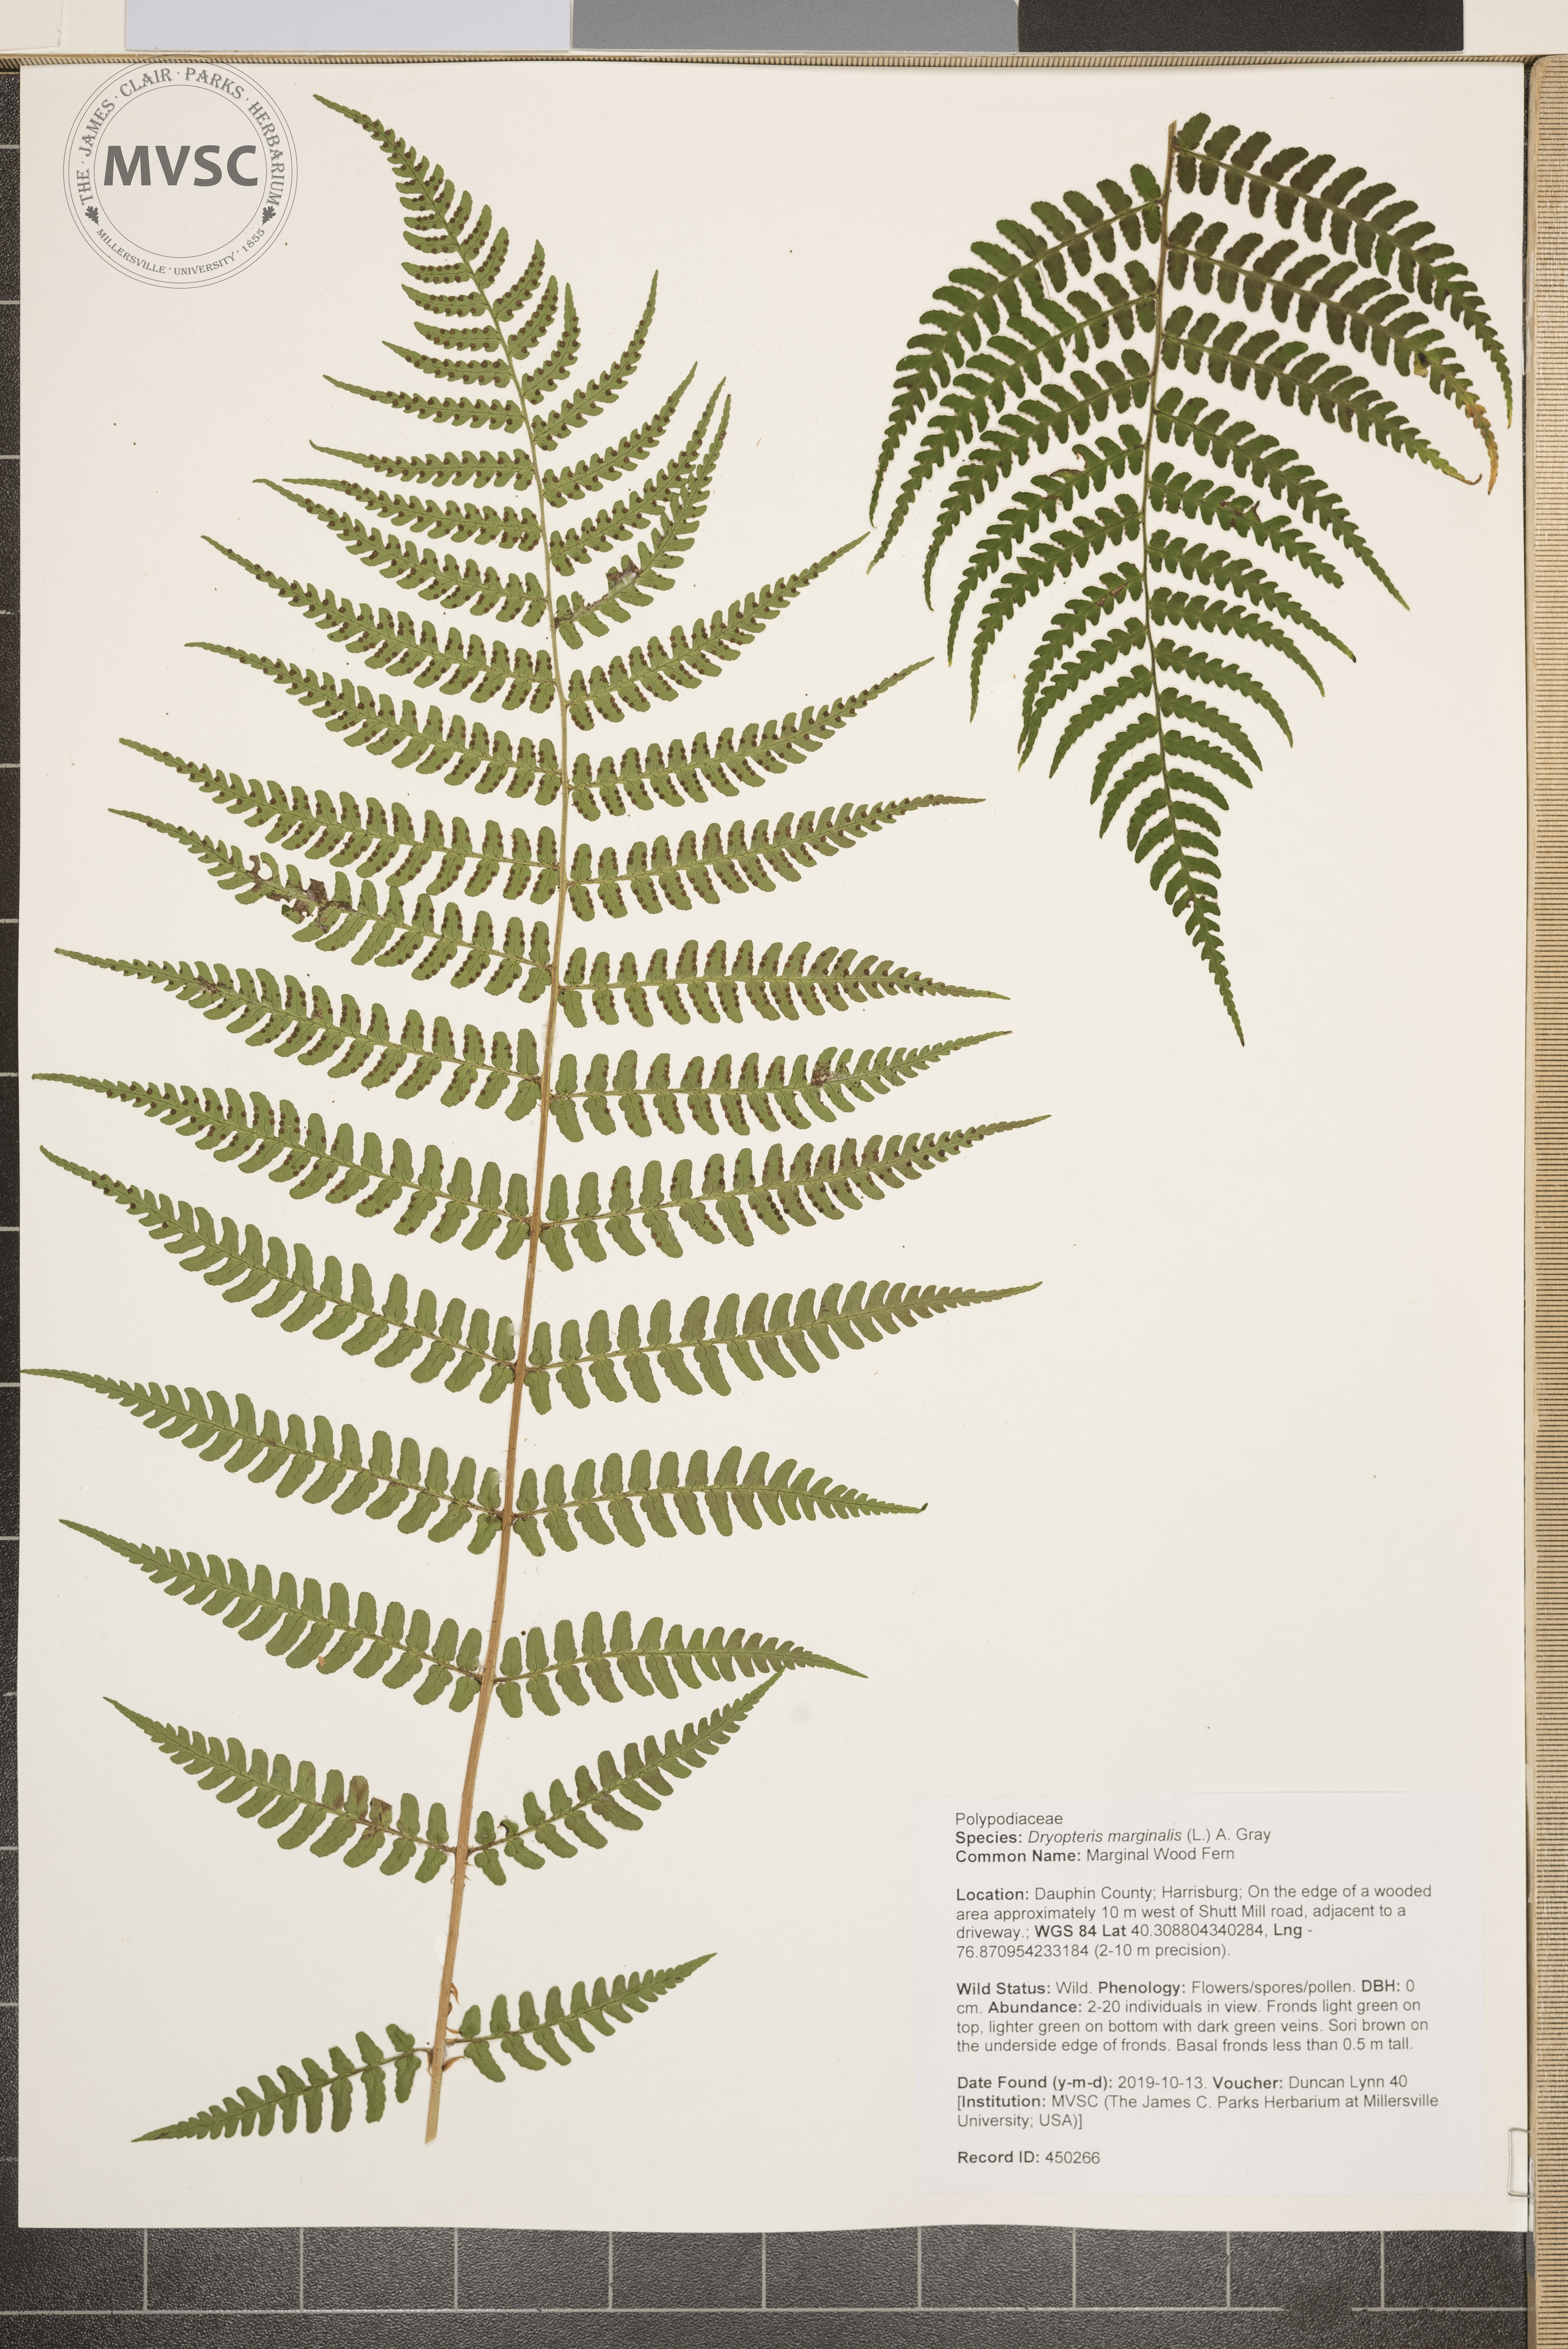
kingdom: Plantae
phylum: Tracheophyta
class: Polypodiopsida
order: Polypodiales
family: Dryopteridaceae
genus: Dryopteris
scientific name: Dryopteris marginalis
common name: Marginal Wood Fern
